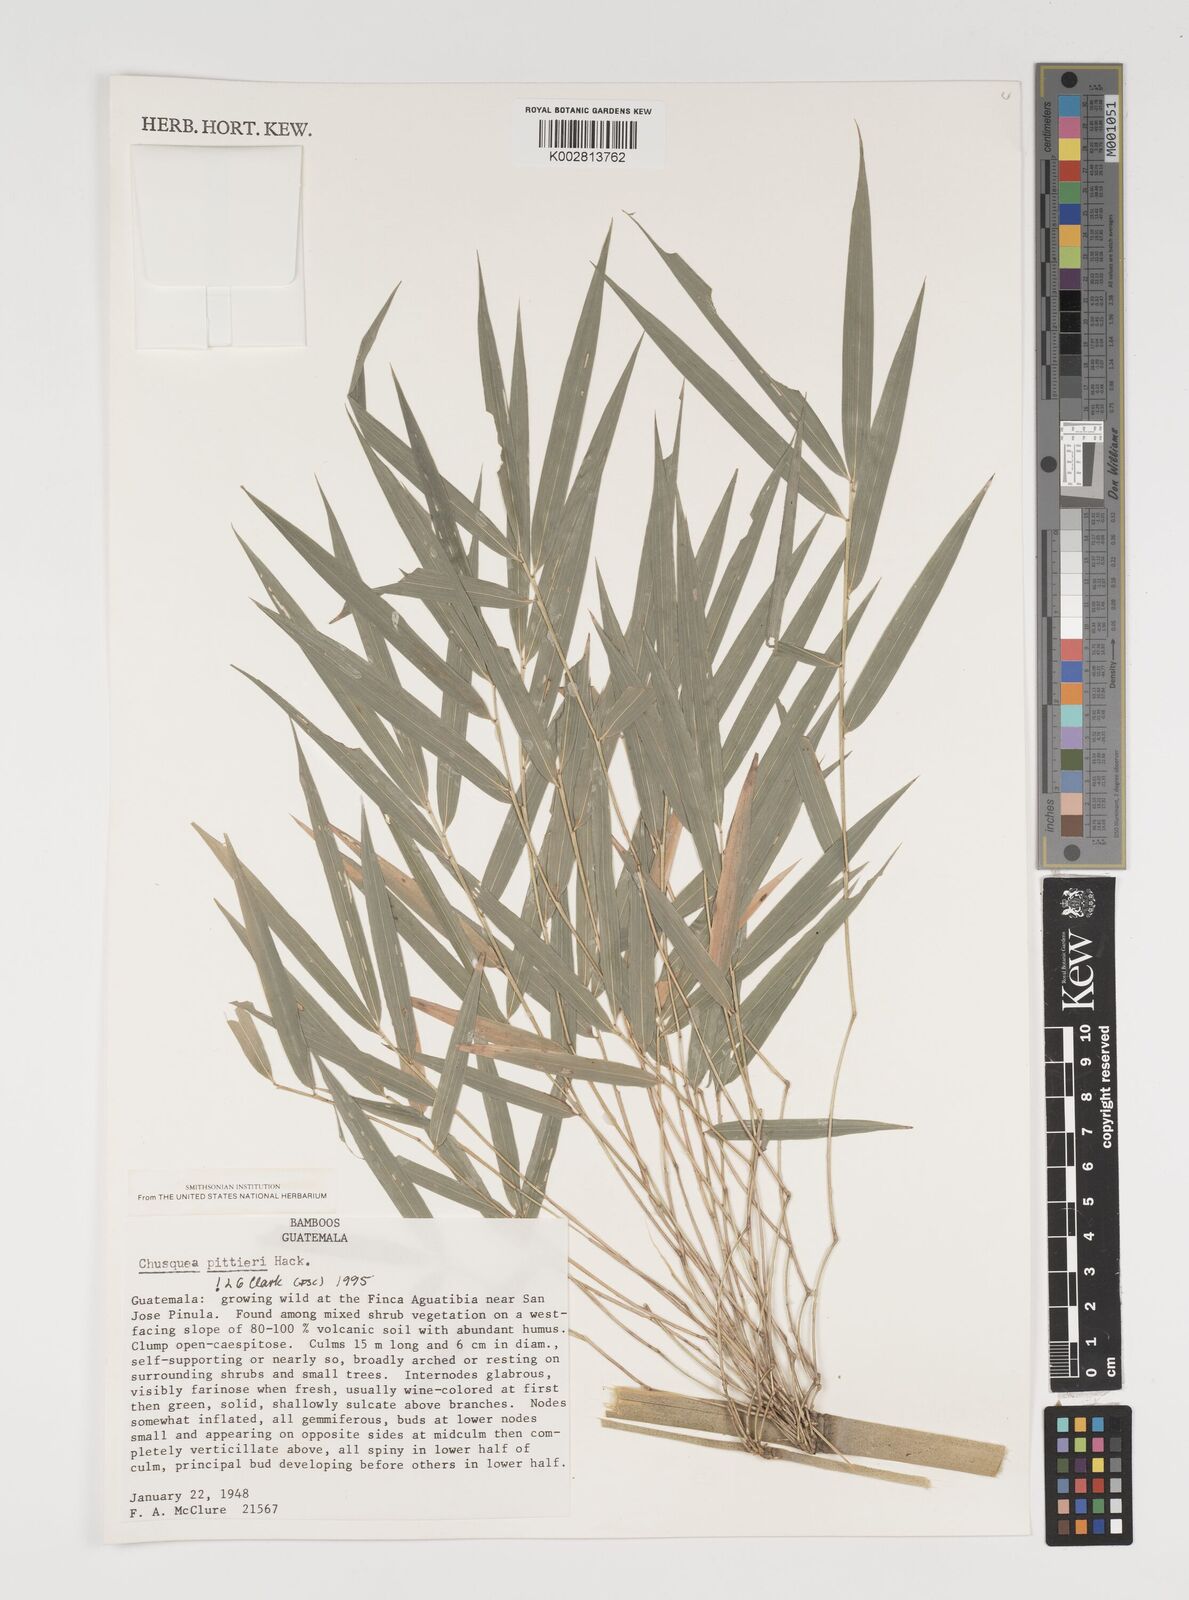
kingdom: Plantae
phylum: Tracheophyta
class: Liliopsida
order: Poales
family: Poaceae
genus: Chusquea
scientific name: Chusquea pittieri
